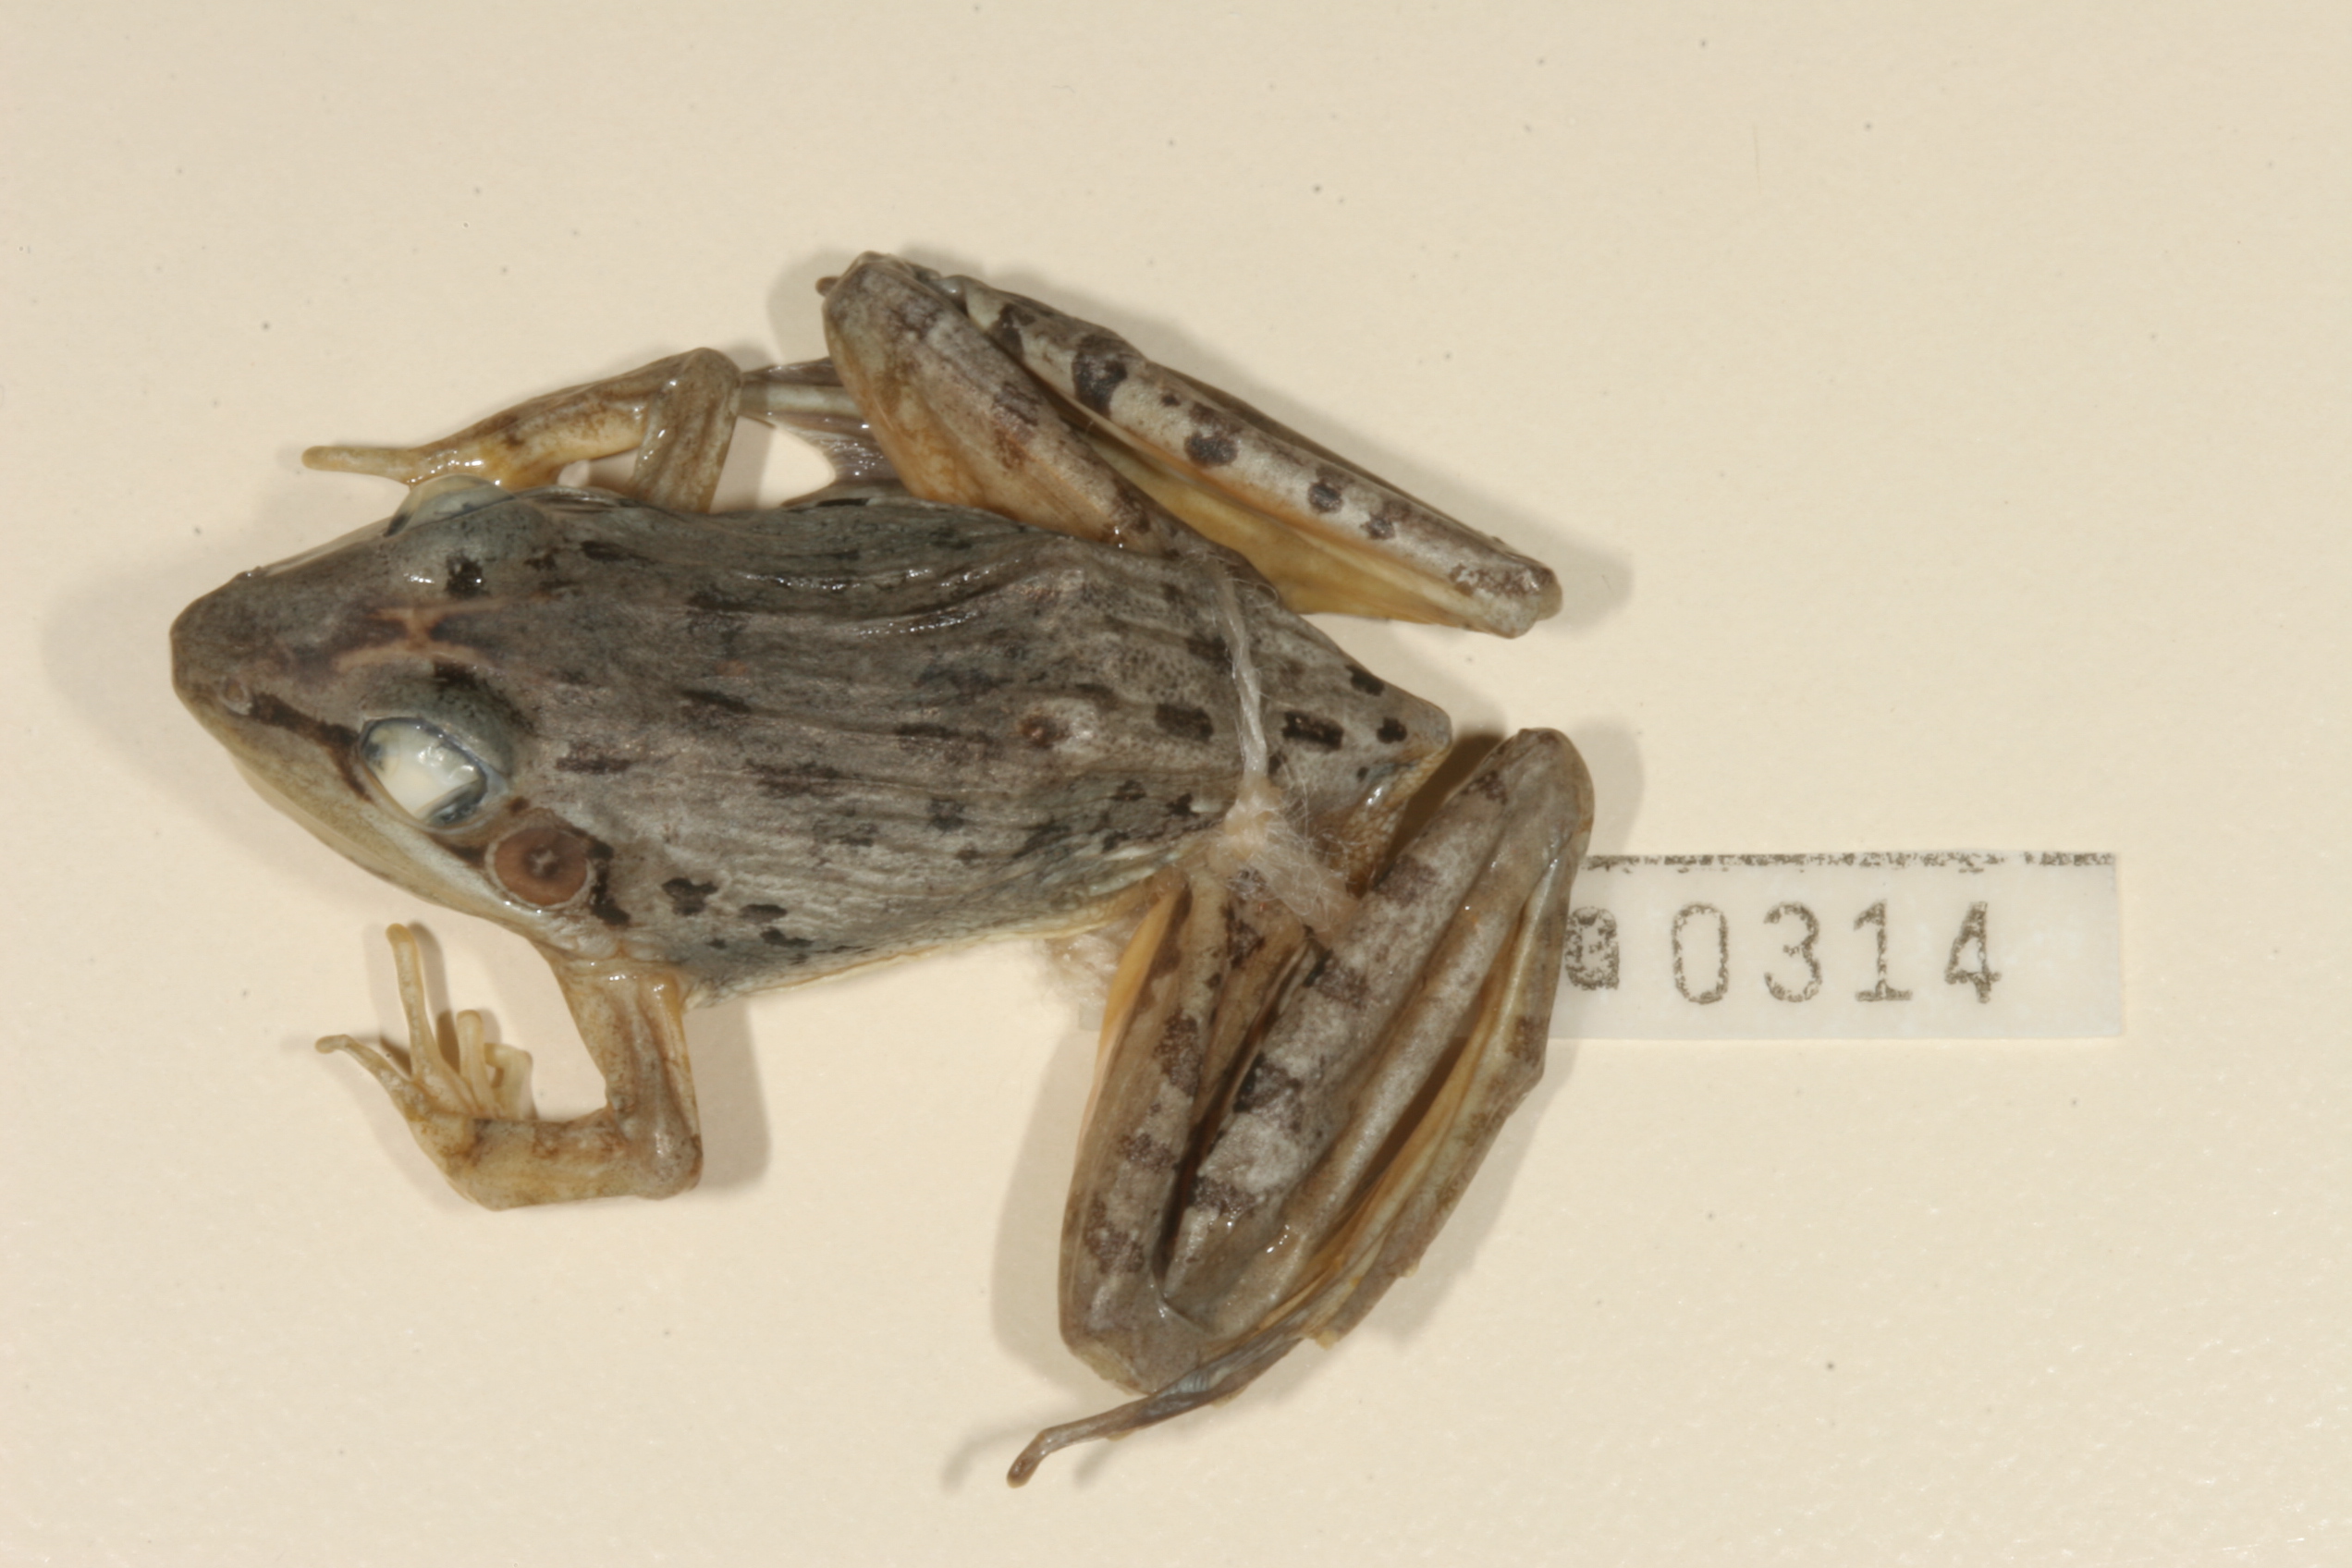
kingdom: Animalia
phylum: Chordata
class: Amphibia
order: Anura
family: Ptychadenidae
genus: Ptychadena
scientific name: Ptychadena anchietae
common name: Anchieta's ridged frog
